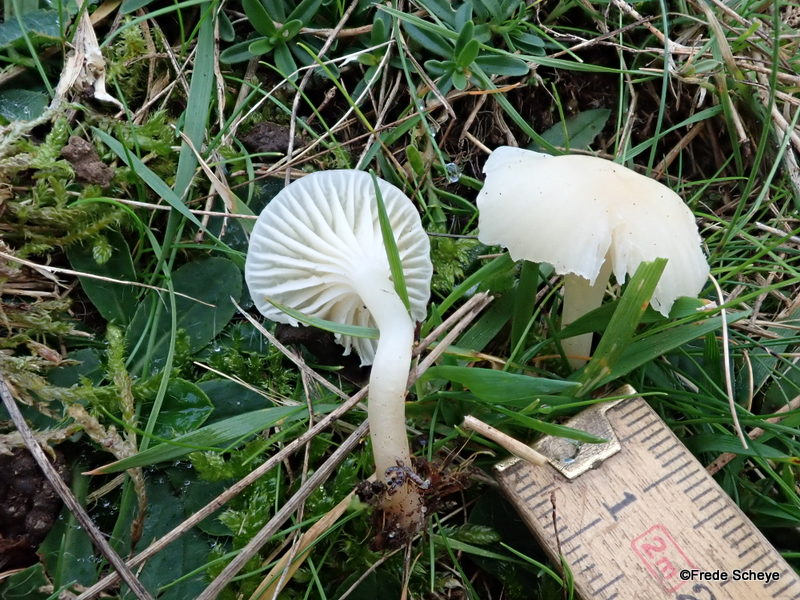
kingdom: Fungi
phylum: Basidiomycota
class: Agaricomycetes
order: Agaricales
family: Hygrophoraceae
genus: Cuphophyllus
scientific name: Cuphophyllus virgineus
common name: snehvid vokshat
